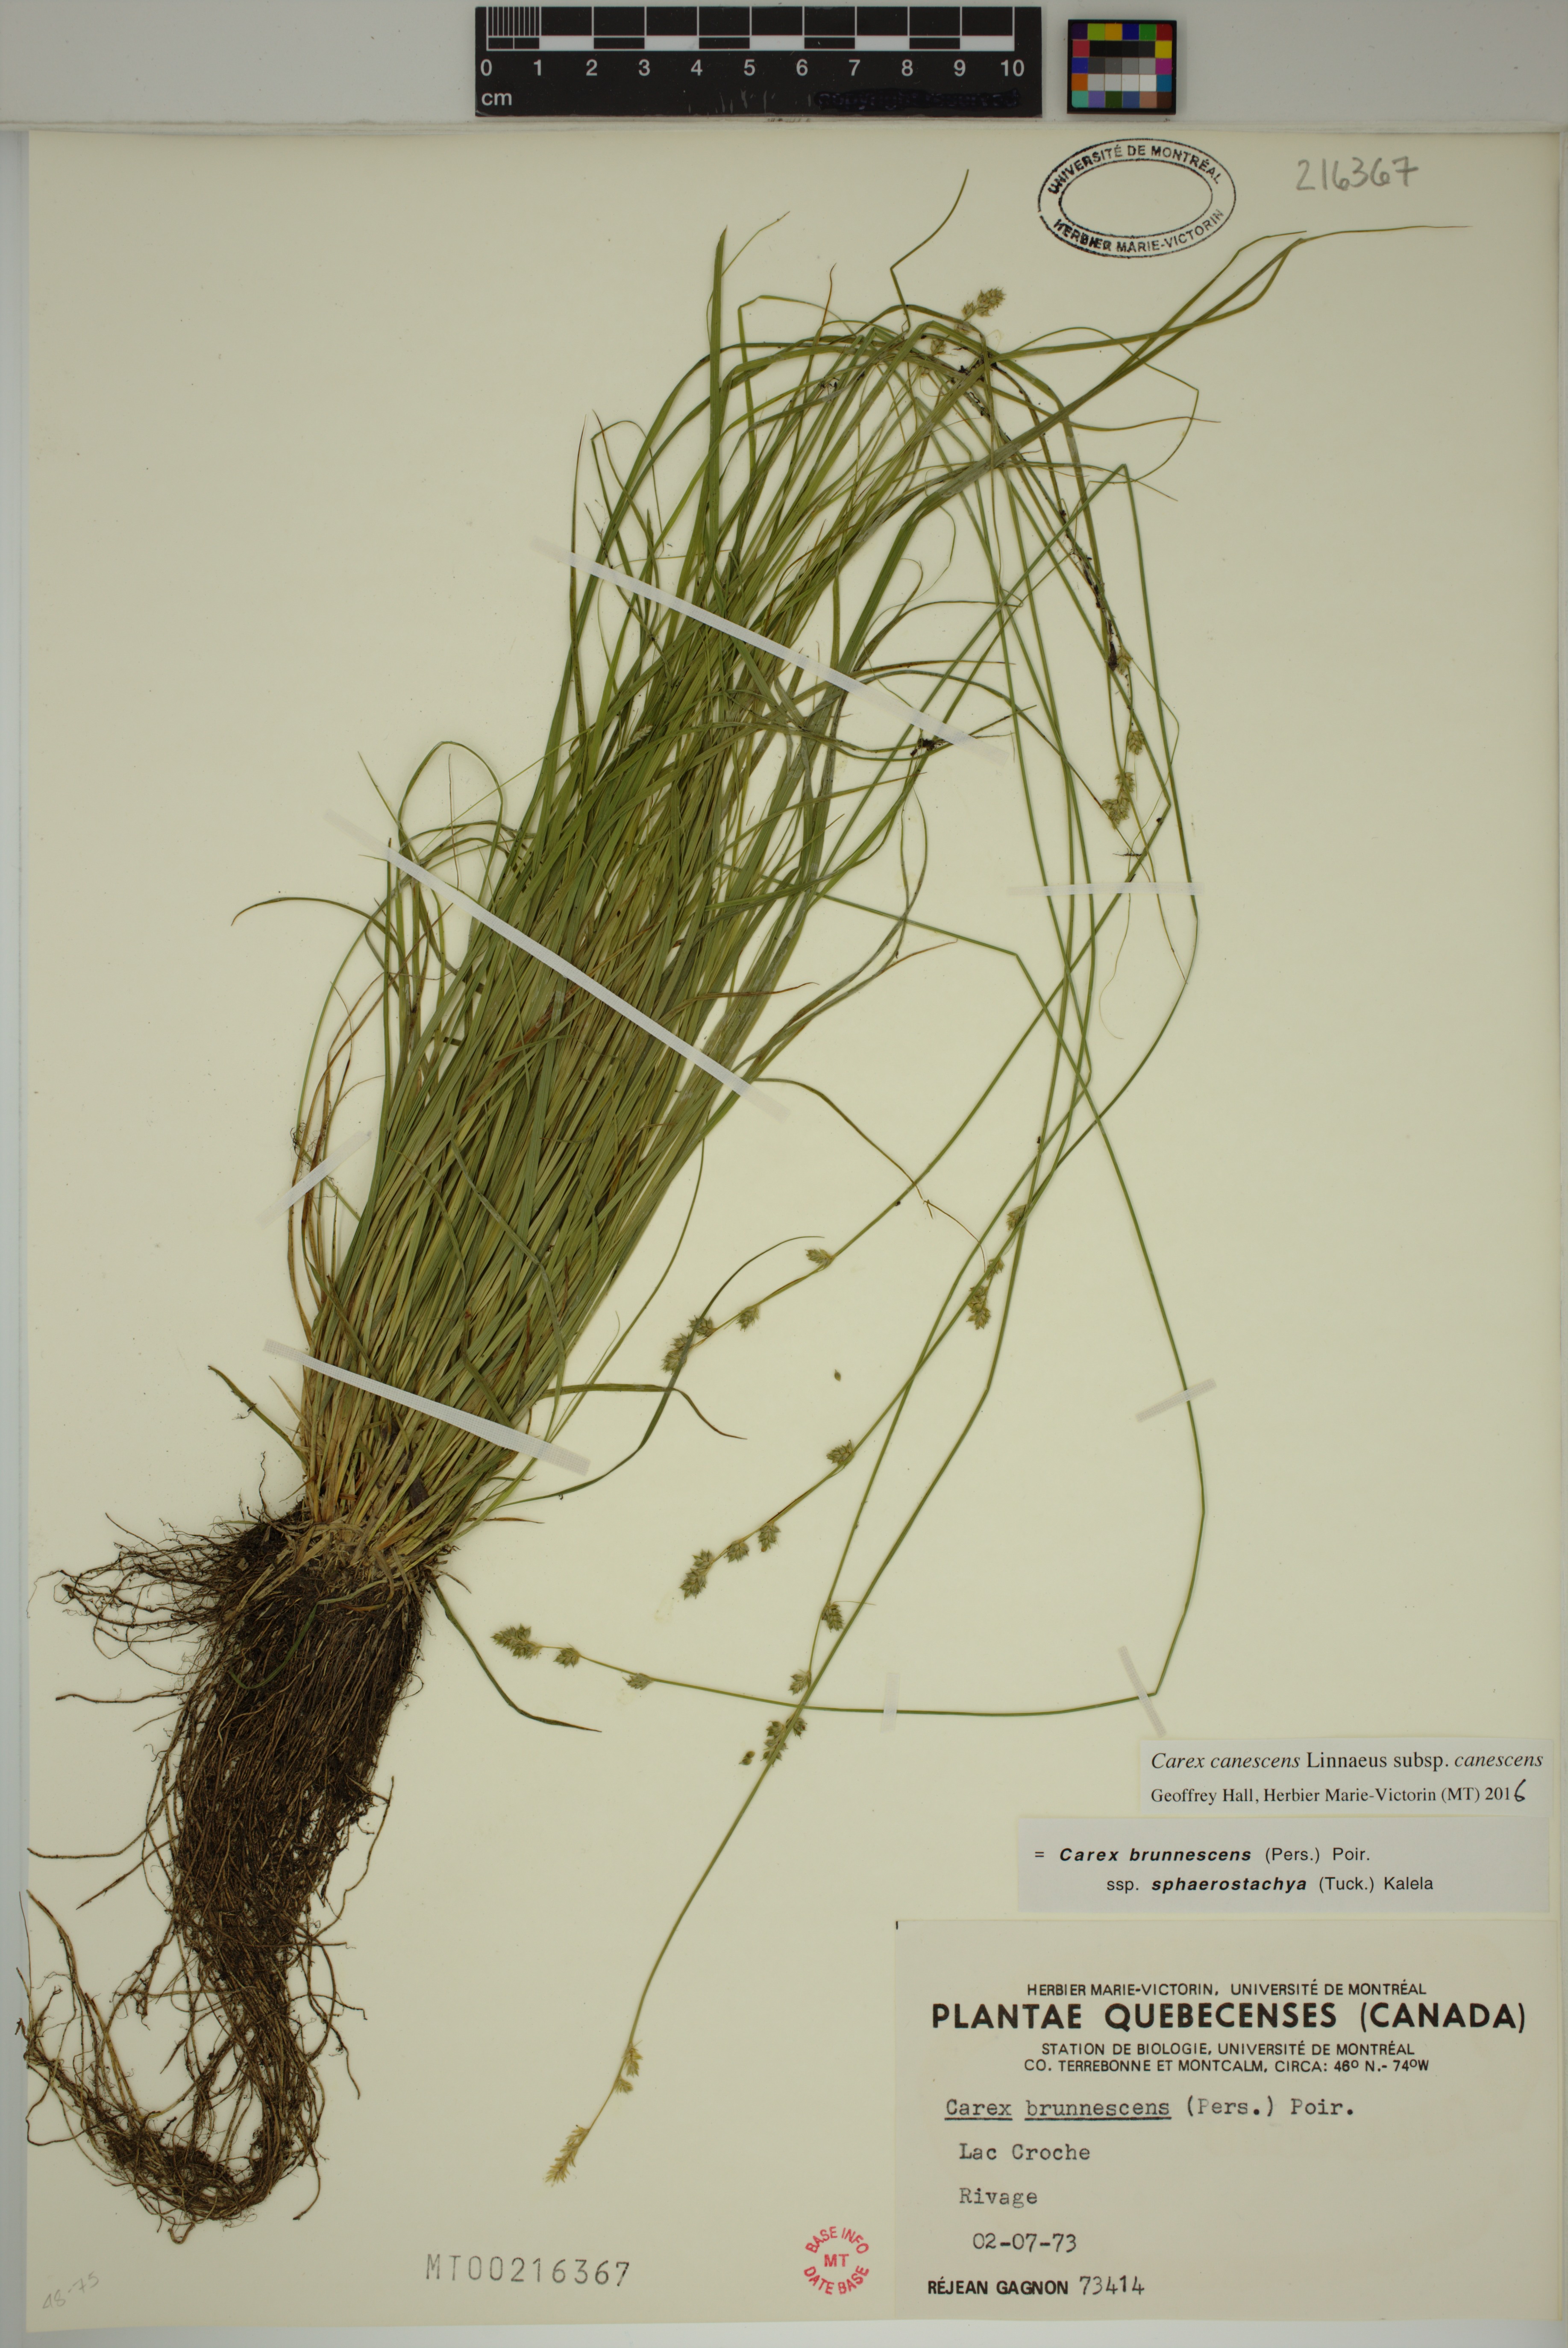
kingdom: Plantae
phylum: Tracheophyta
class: Liliopsida
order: Poales
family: Cyperaceae
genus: Carex
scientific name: Carex canescens
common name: White sedge
